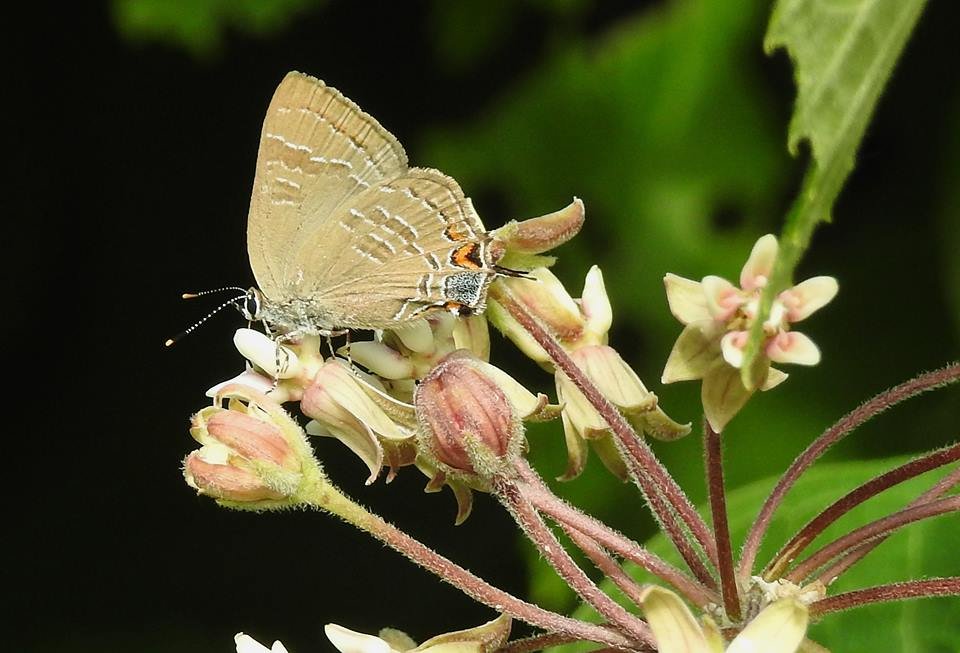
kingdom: Animalia
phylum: Arthropoda
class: Insecta
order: Lepidoptera
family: Lycaenidae
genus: Satyrium
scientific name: Satyrium calanus
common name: Banded Hairstreak
